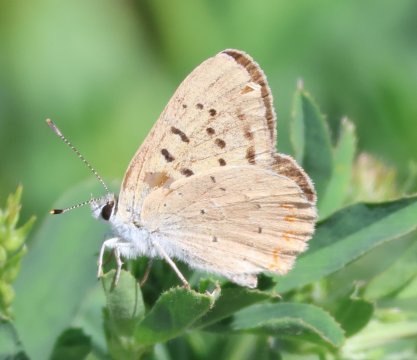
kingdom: Animalia
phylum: Arthropoda
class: Insecta
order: Lepidoptera
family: Sesiidae
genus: Sesia
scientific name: Sesia Lycaena helloides
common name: Purplish Copper
